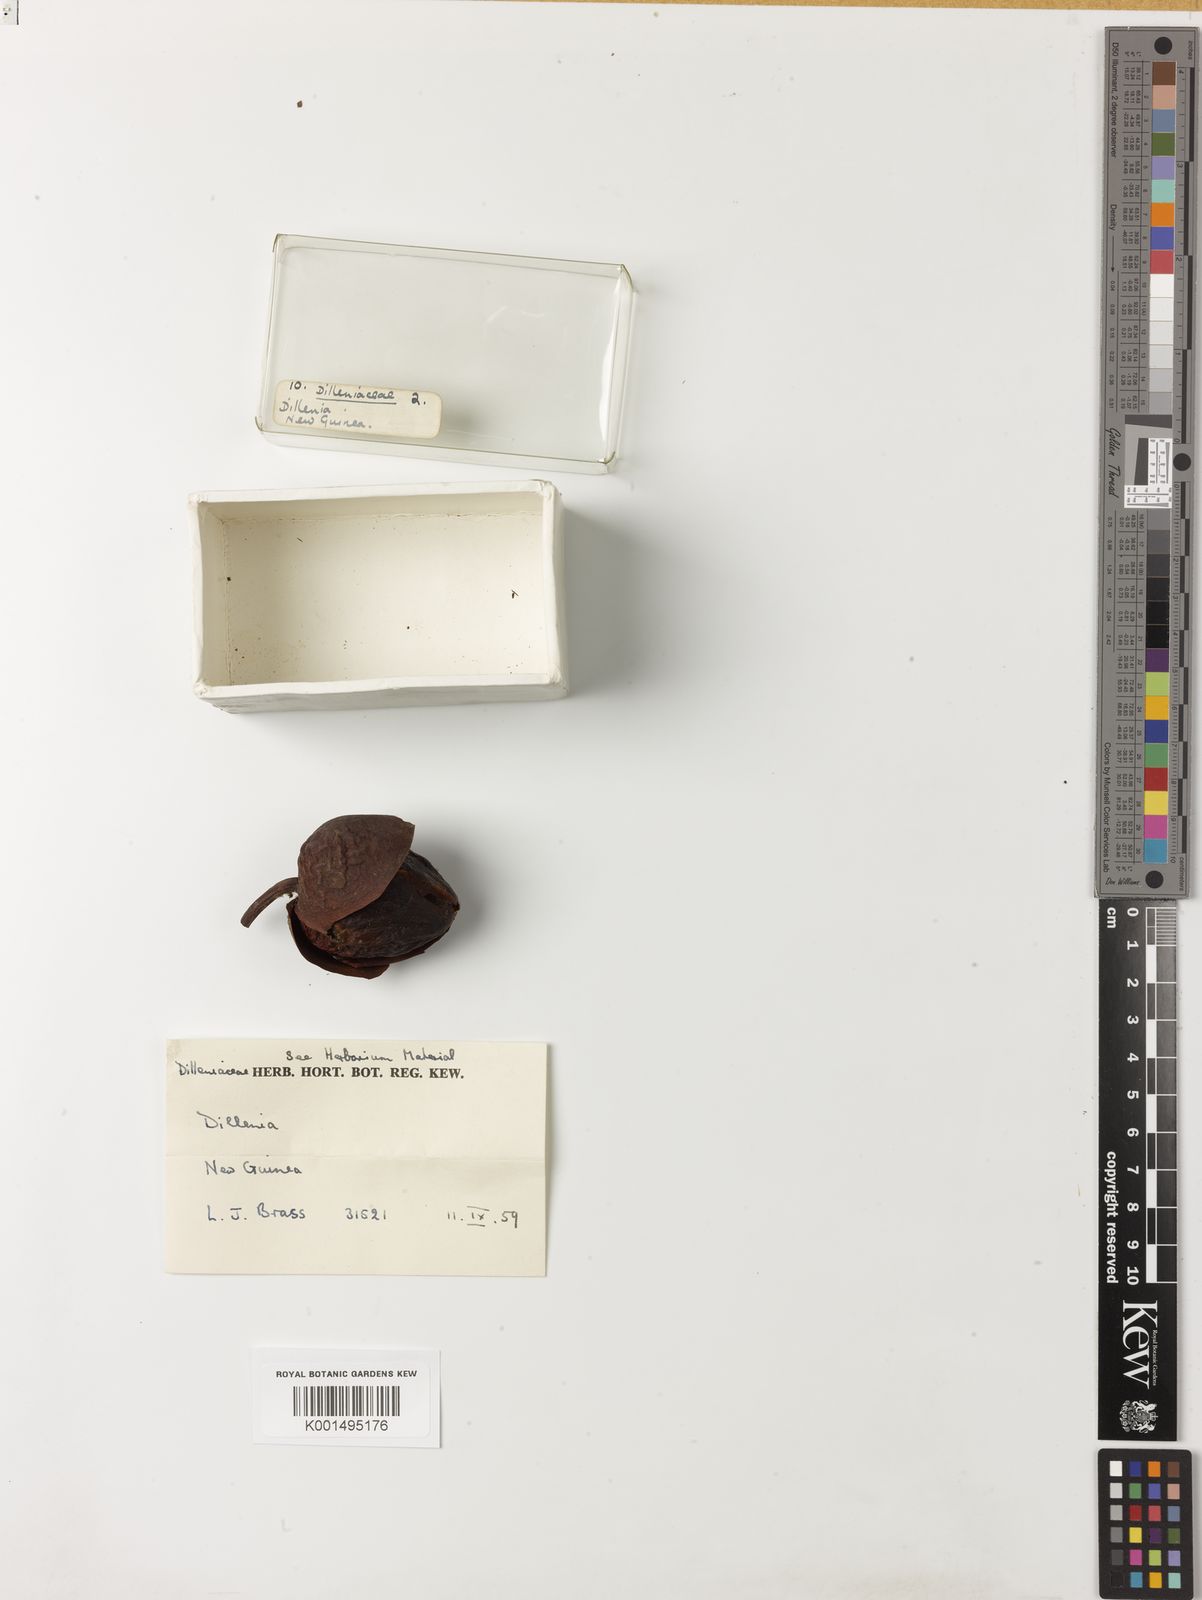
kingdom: Plantae
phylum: Tracheophyta
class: Magnoliopsida
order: Dilleniales
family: Dilleniaceae
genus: Dillenia
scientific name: Dillenia montana
